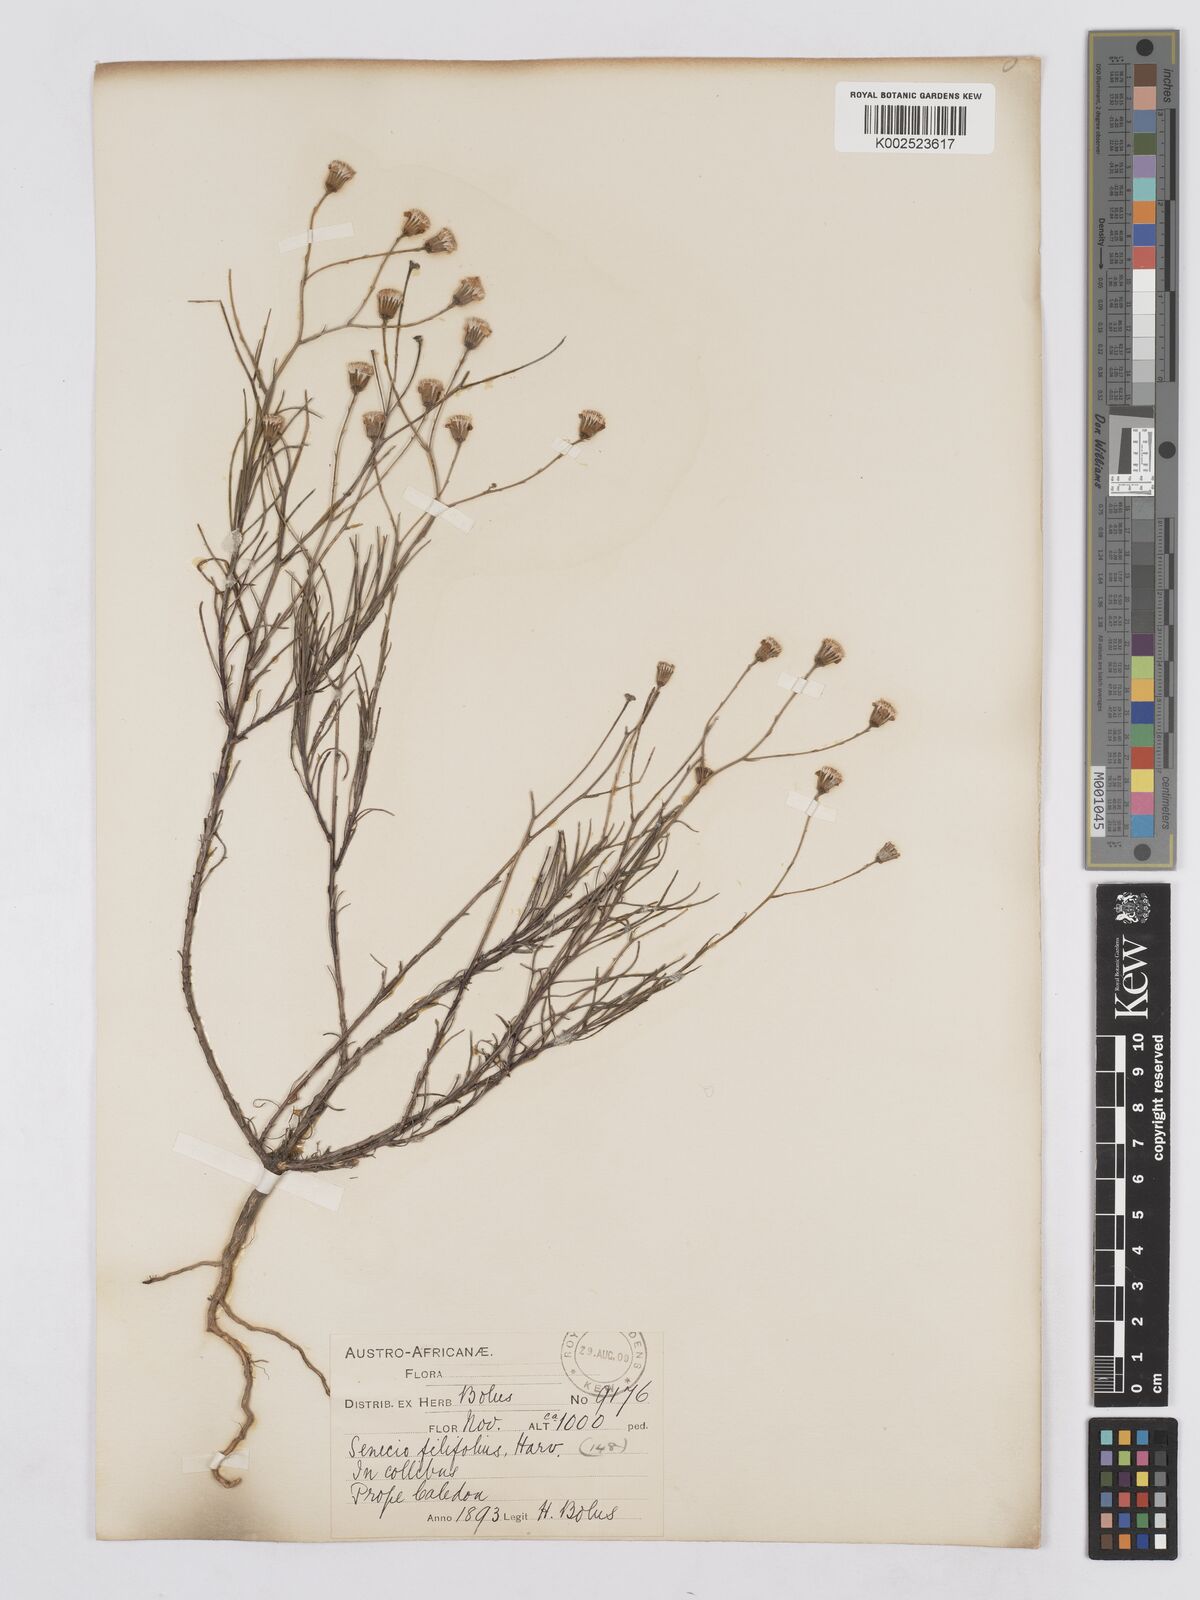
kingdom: Plantae
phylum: Tracheophyta
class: Magnoliopsida
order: Asterales
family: Asteraceae
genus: Senecio
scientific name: Senecio
